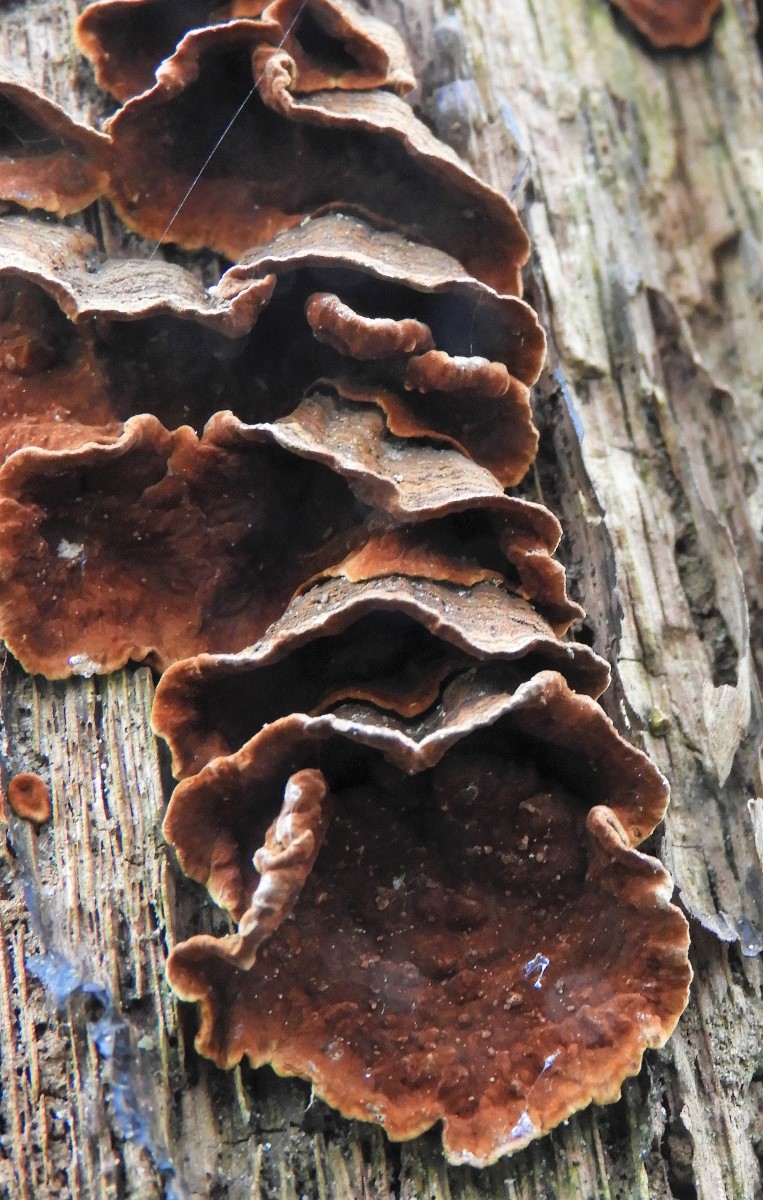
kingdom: Fungi
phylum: Basidiomycota
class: Agaricomycetes
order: Hymenochaetales
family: Hymenochaetaceae
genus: Hymenochaete
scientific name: Hymenochaete rubiginosa
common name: stiv ruslædersvamp
